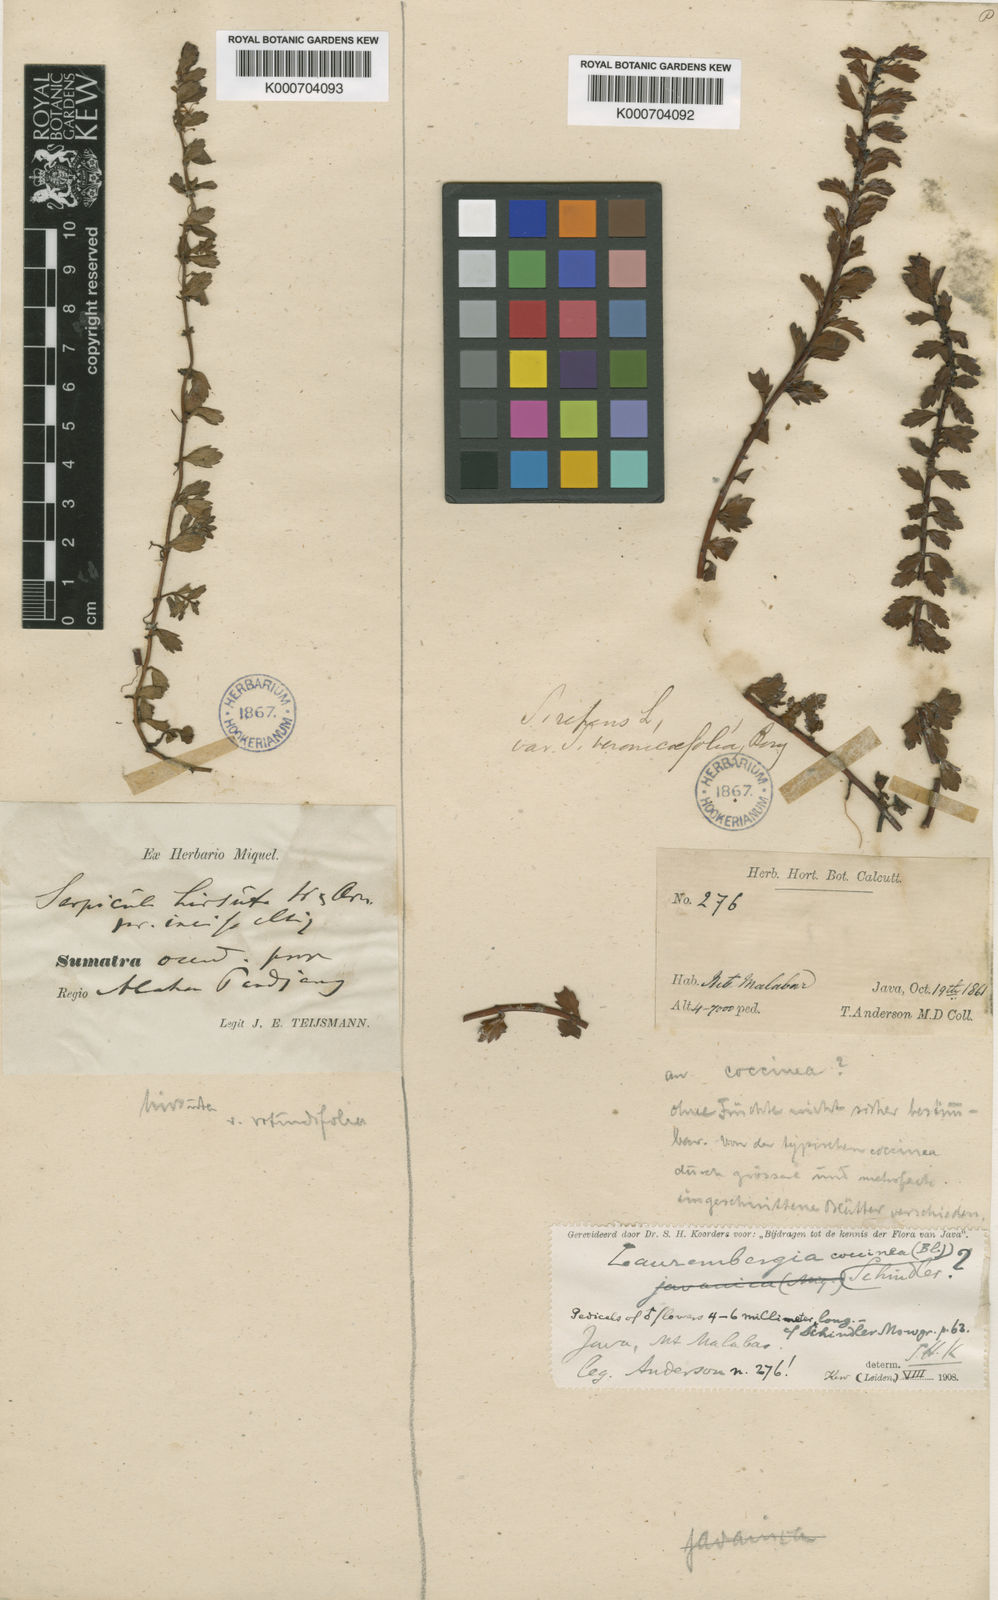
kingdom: Plantae
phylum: Tracheophyta
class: Magnoliopsida
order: Saxifragales
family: Haloragaceae
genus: Laurembergia
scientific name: Laurembergia coccinea
